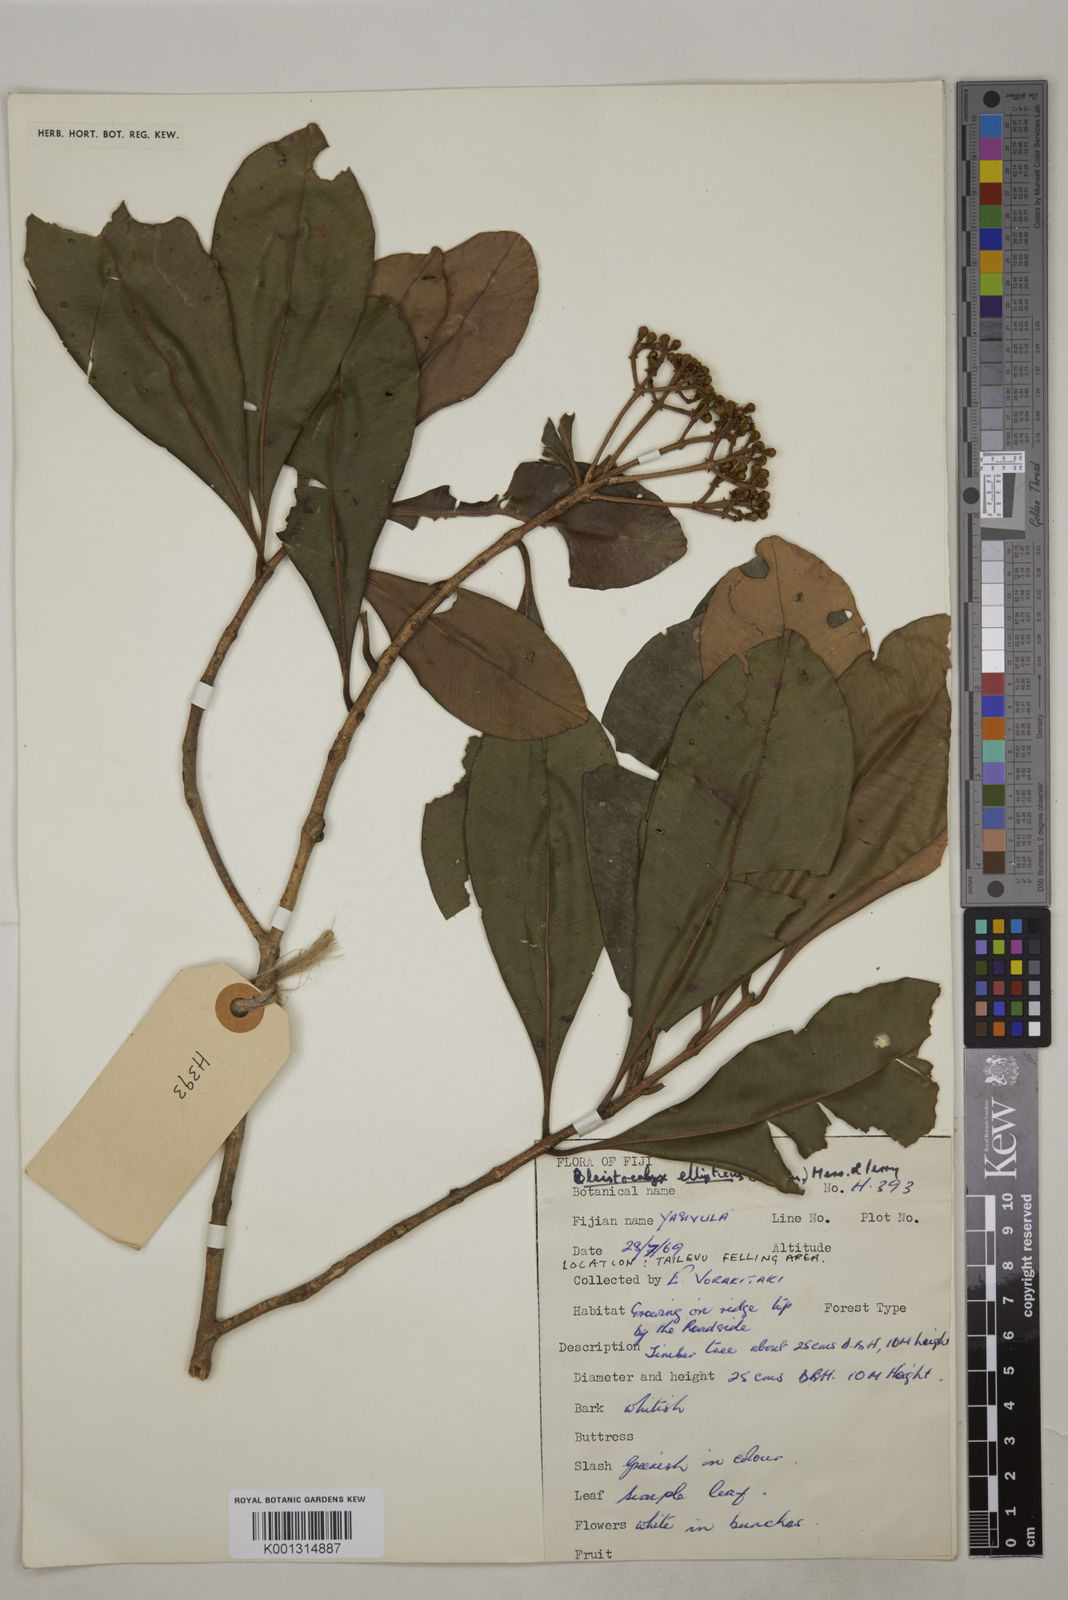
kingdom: Plantae
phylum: Tracheophyta
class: Magnoliopsida
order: Myrtales
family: Myrtaceae
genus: Syzygium
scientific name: Syzygium seemannii
